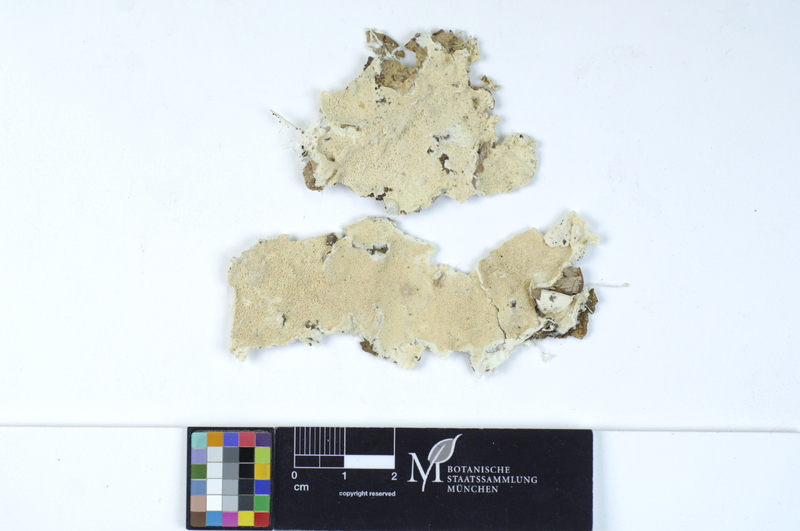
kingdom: Fungi
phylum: Basidiomycota
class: Agaricomycetes
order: Polyporales
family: Incrustoporiaceae
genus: Skeletocutis
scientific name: Skeletocutis alutacea
